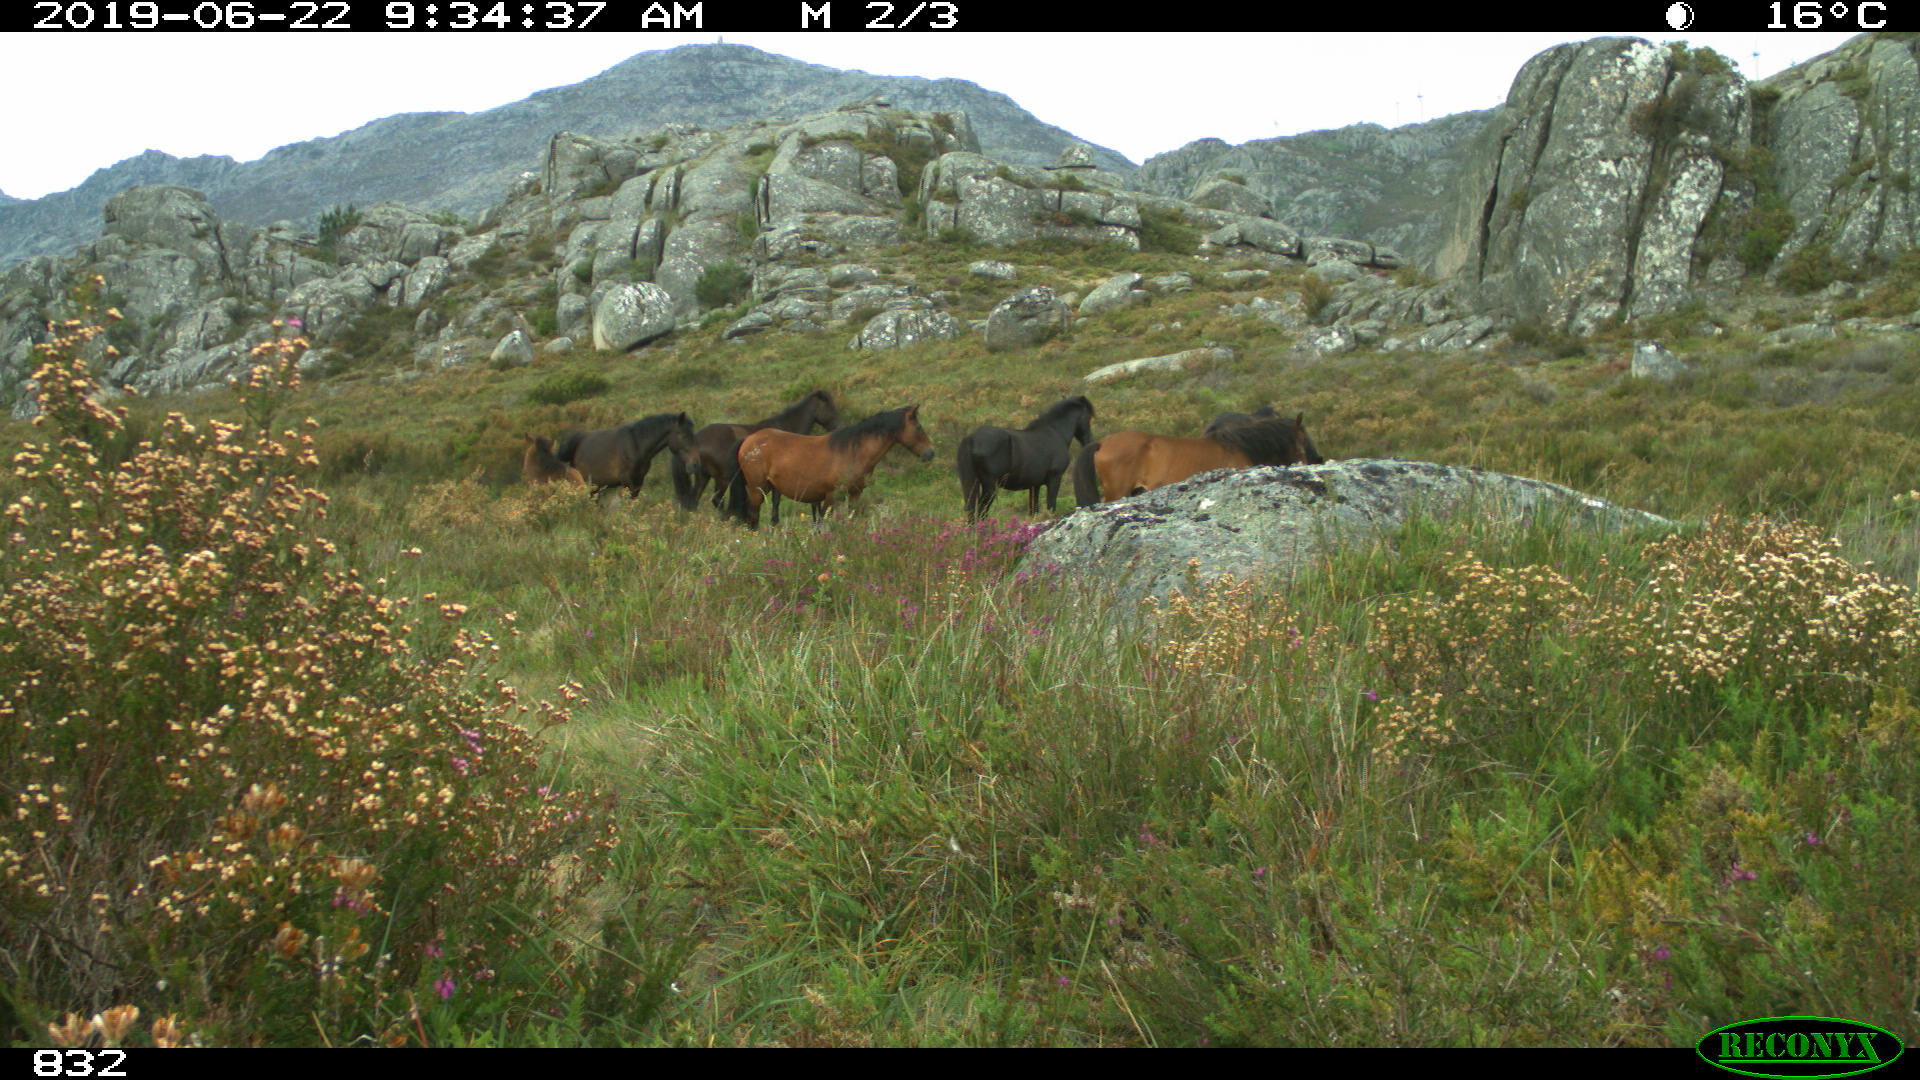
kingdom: Animalia
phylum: Chordata
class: Mammalia
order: Perissodactyla
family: Equidae
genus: Equus
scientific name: Equus caballus
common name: Horse
